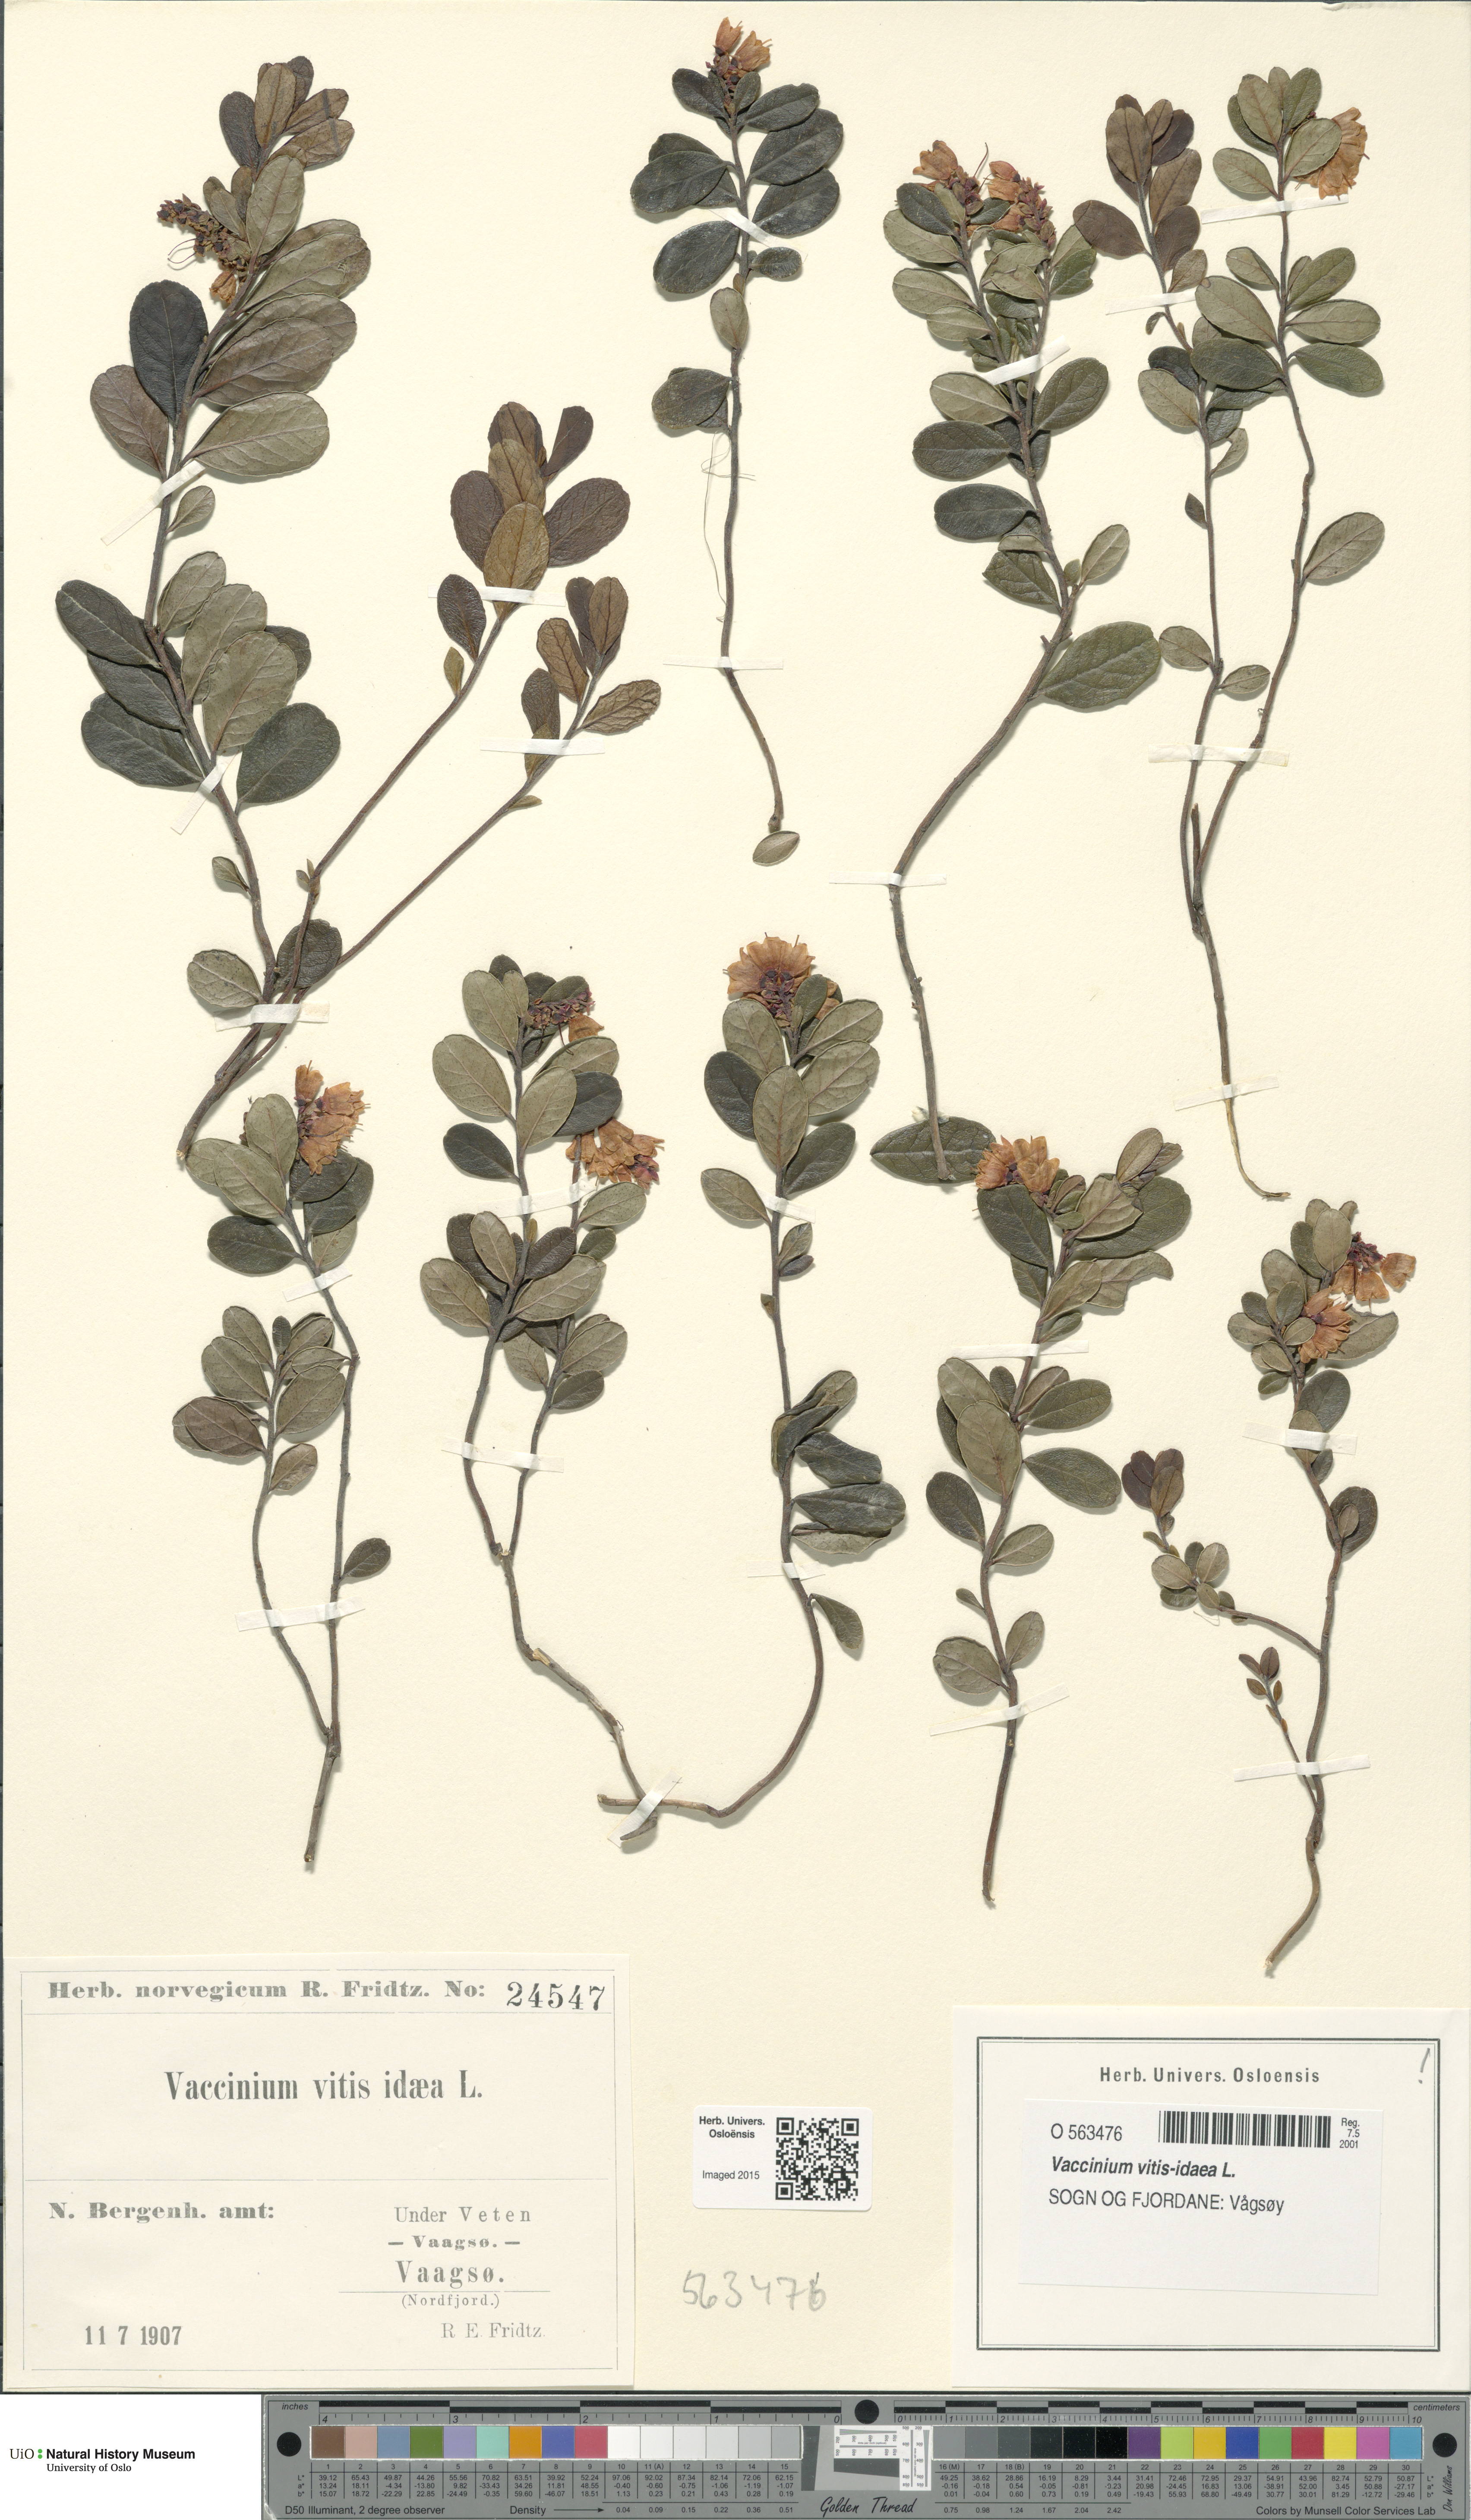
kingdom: Plantae
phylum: Tracheophyta
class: Magnoliopsida
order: Ericales
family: Ericaceae
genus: Vaccinium
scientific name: Vaccinium vitis-idaea
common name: Cowberry
